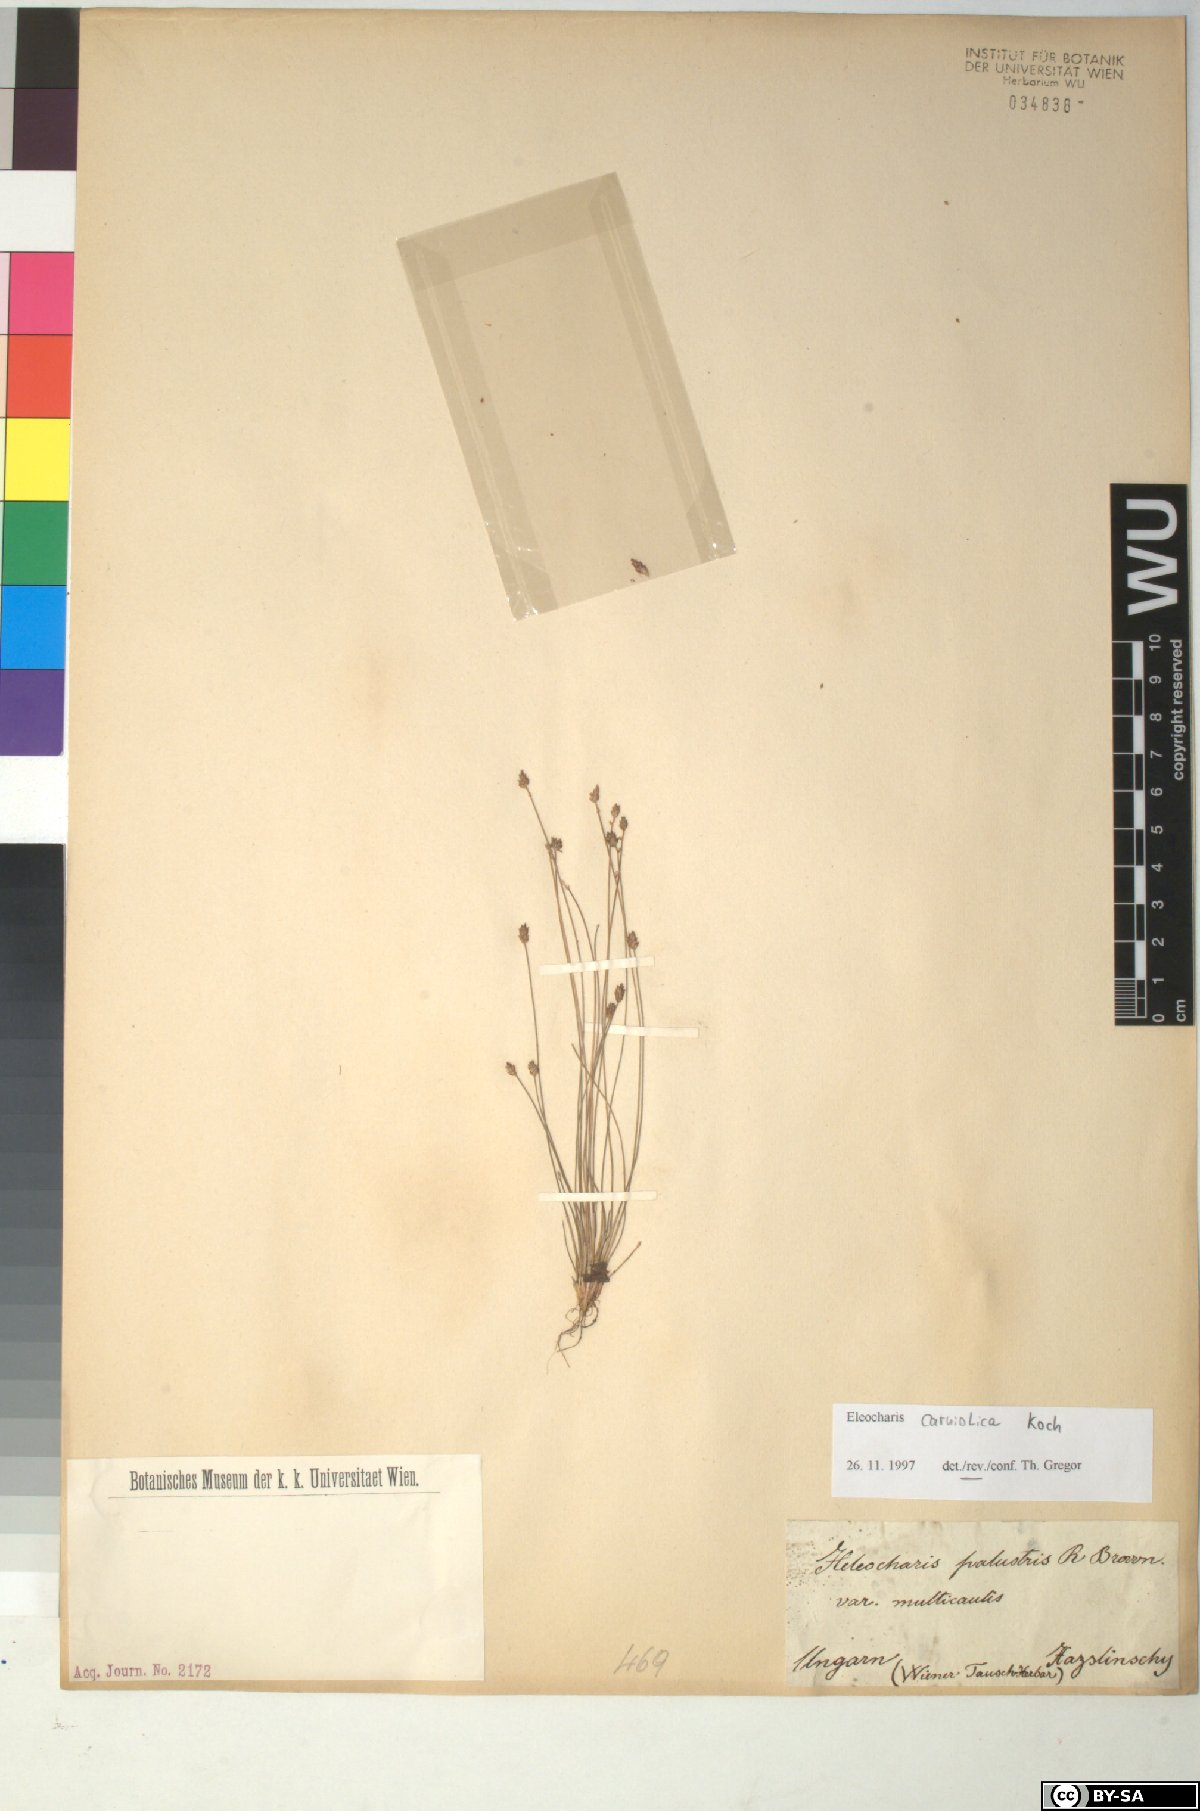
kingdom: Plantae
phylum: Tracheophyta
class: Liliopsida
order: Poales
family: Cyperaceae
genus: Eleocharis
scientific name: Eleocharis carniolica
